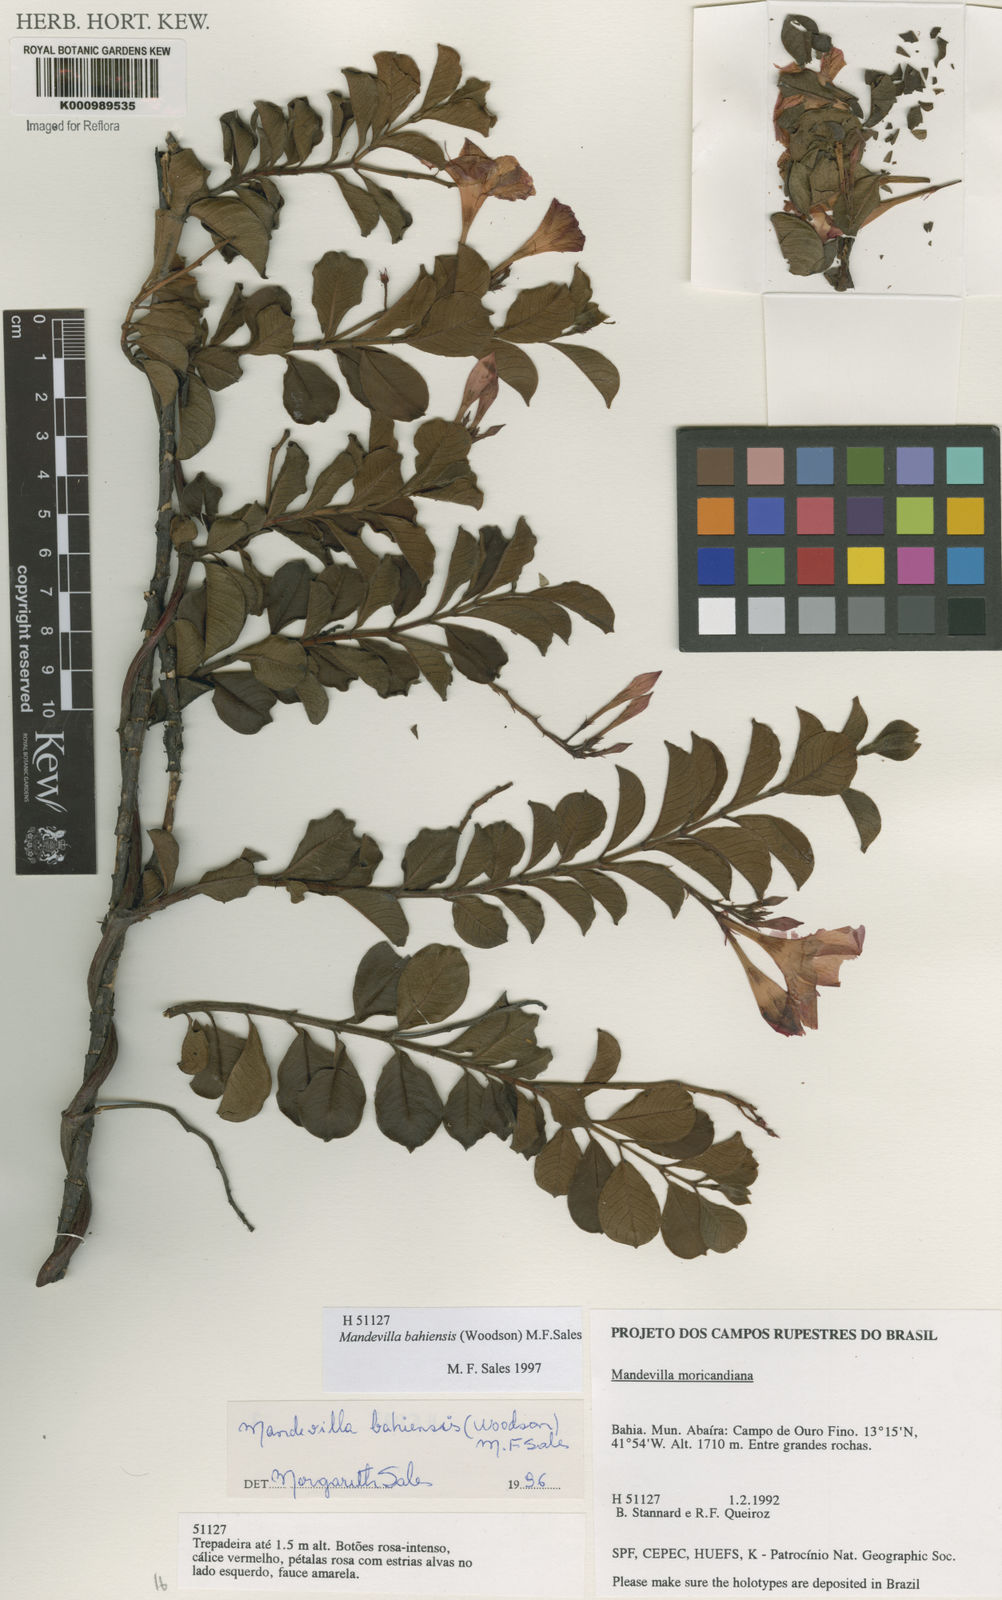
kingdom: Plantae
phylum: Tracheophyta
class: Magnoliopsida
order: Gentianales
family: Apocynaceae
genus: Mandevilla
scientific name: Mandevilla bahiensis
